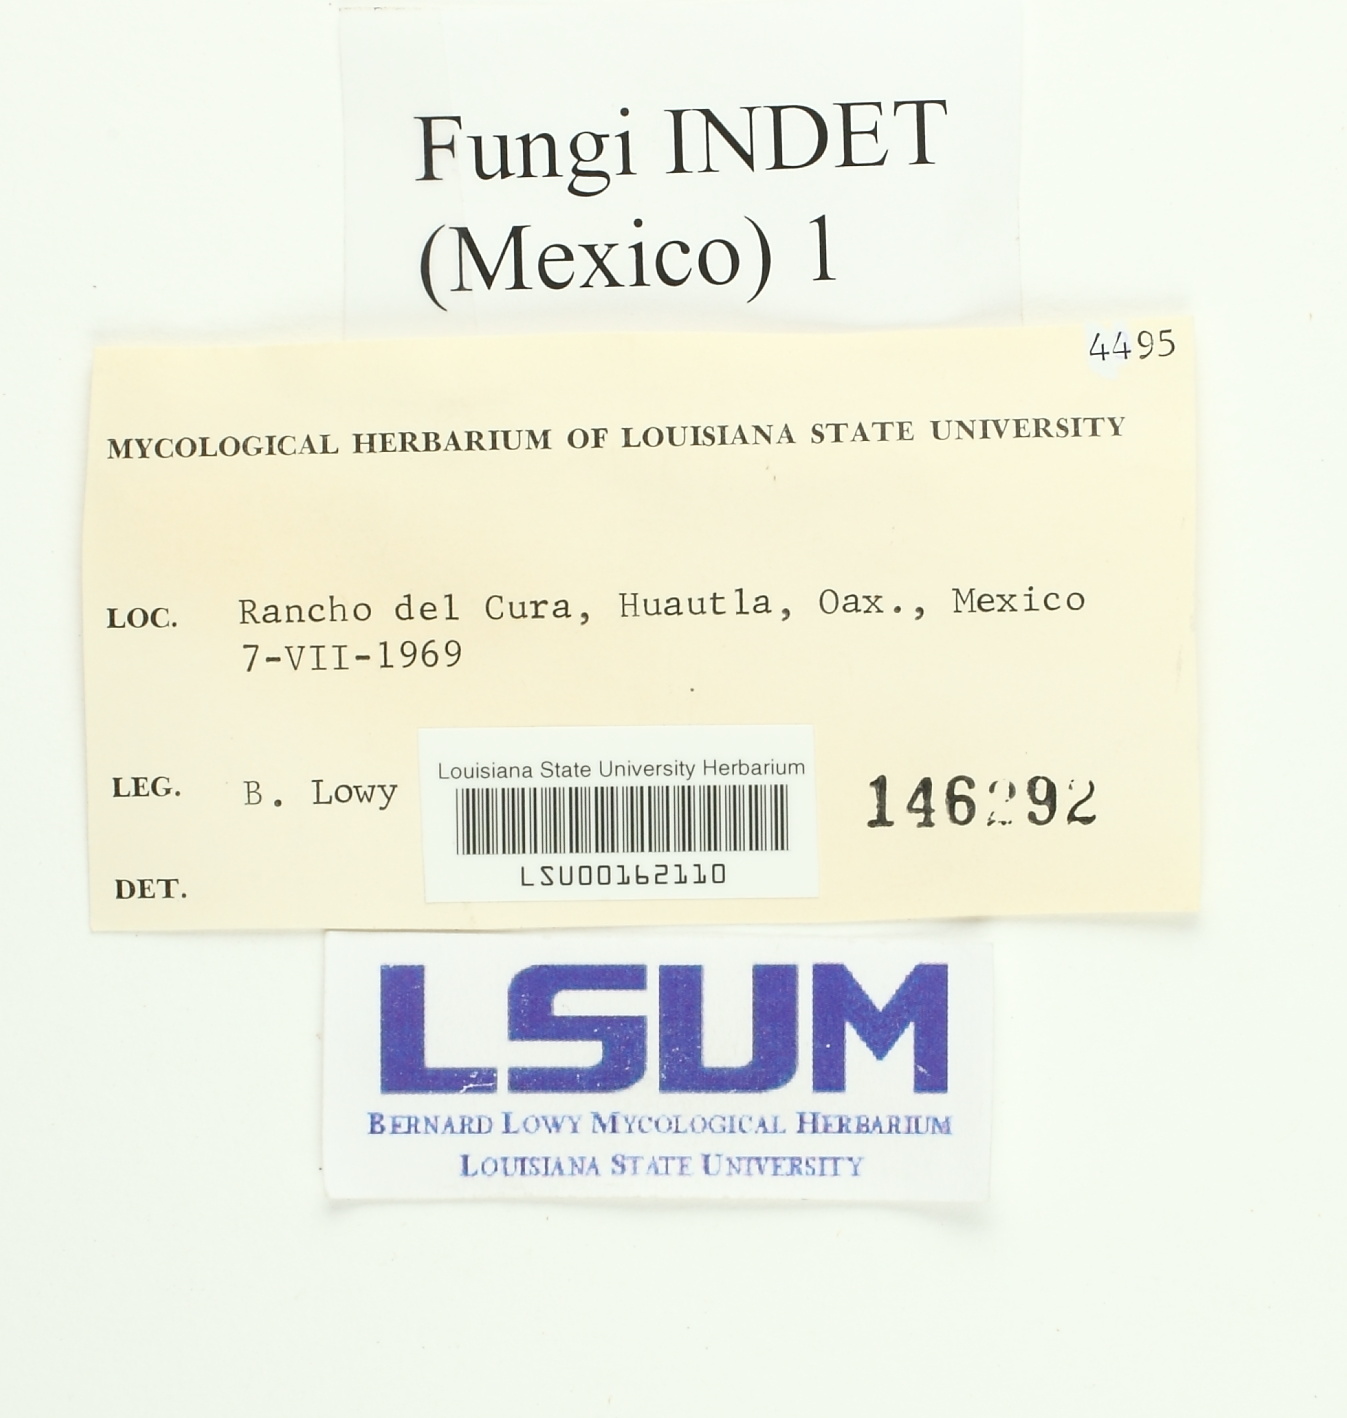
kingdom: Fungi
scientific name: Fungi
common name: Fungi
